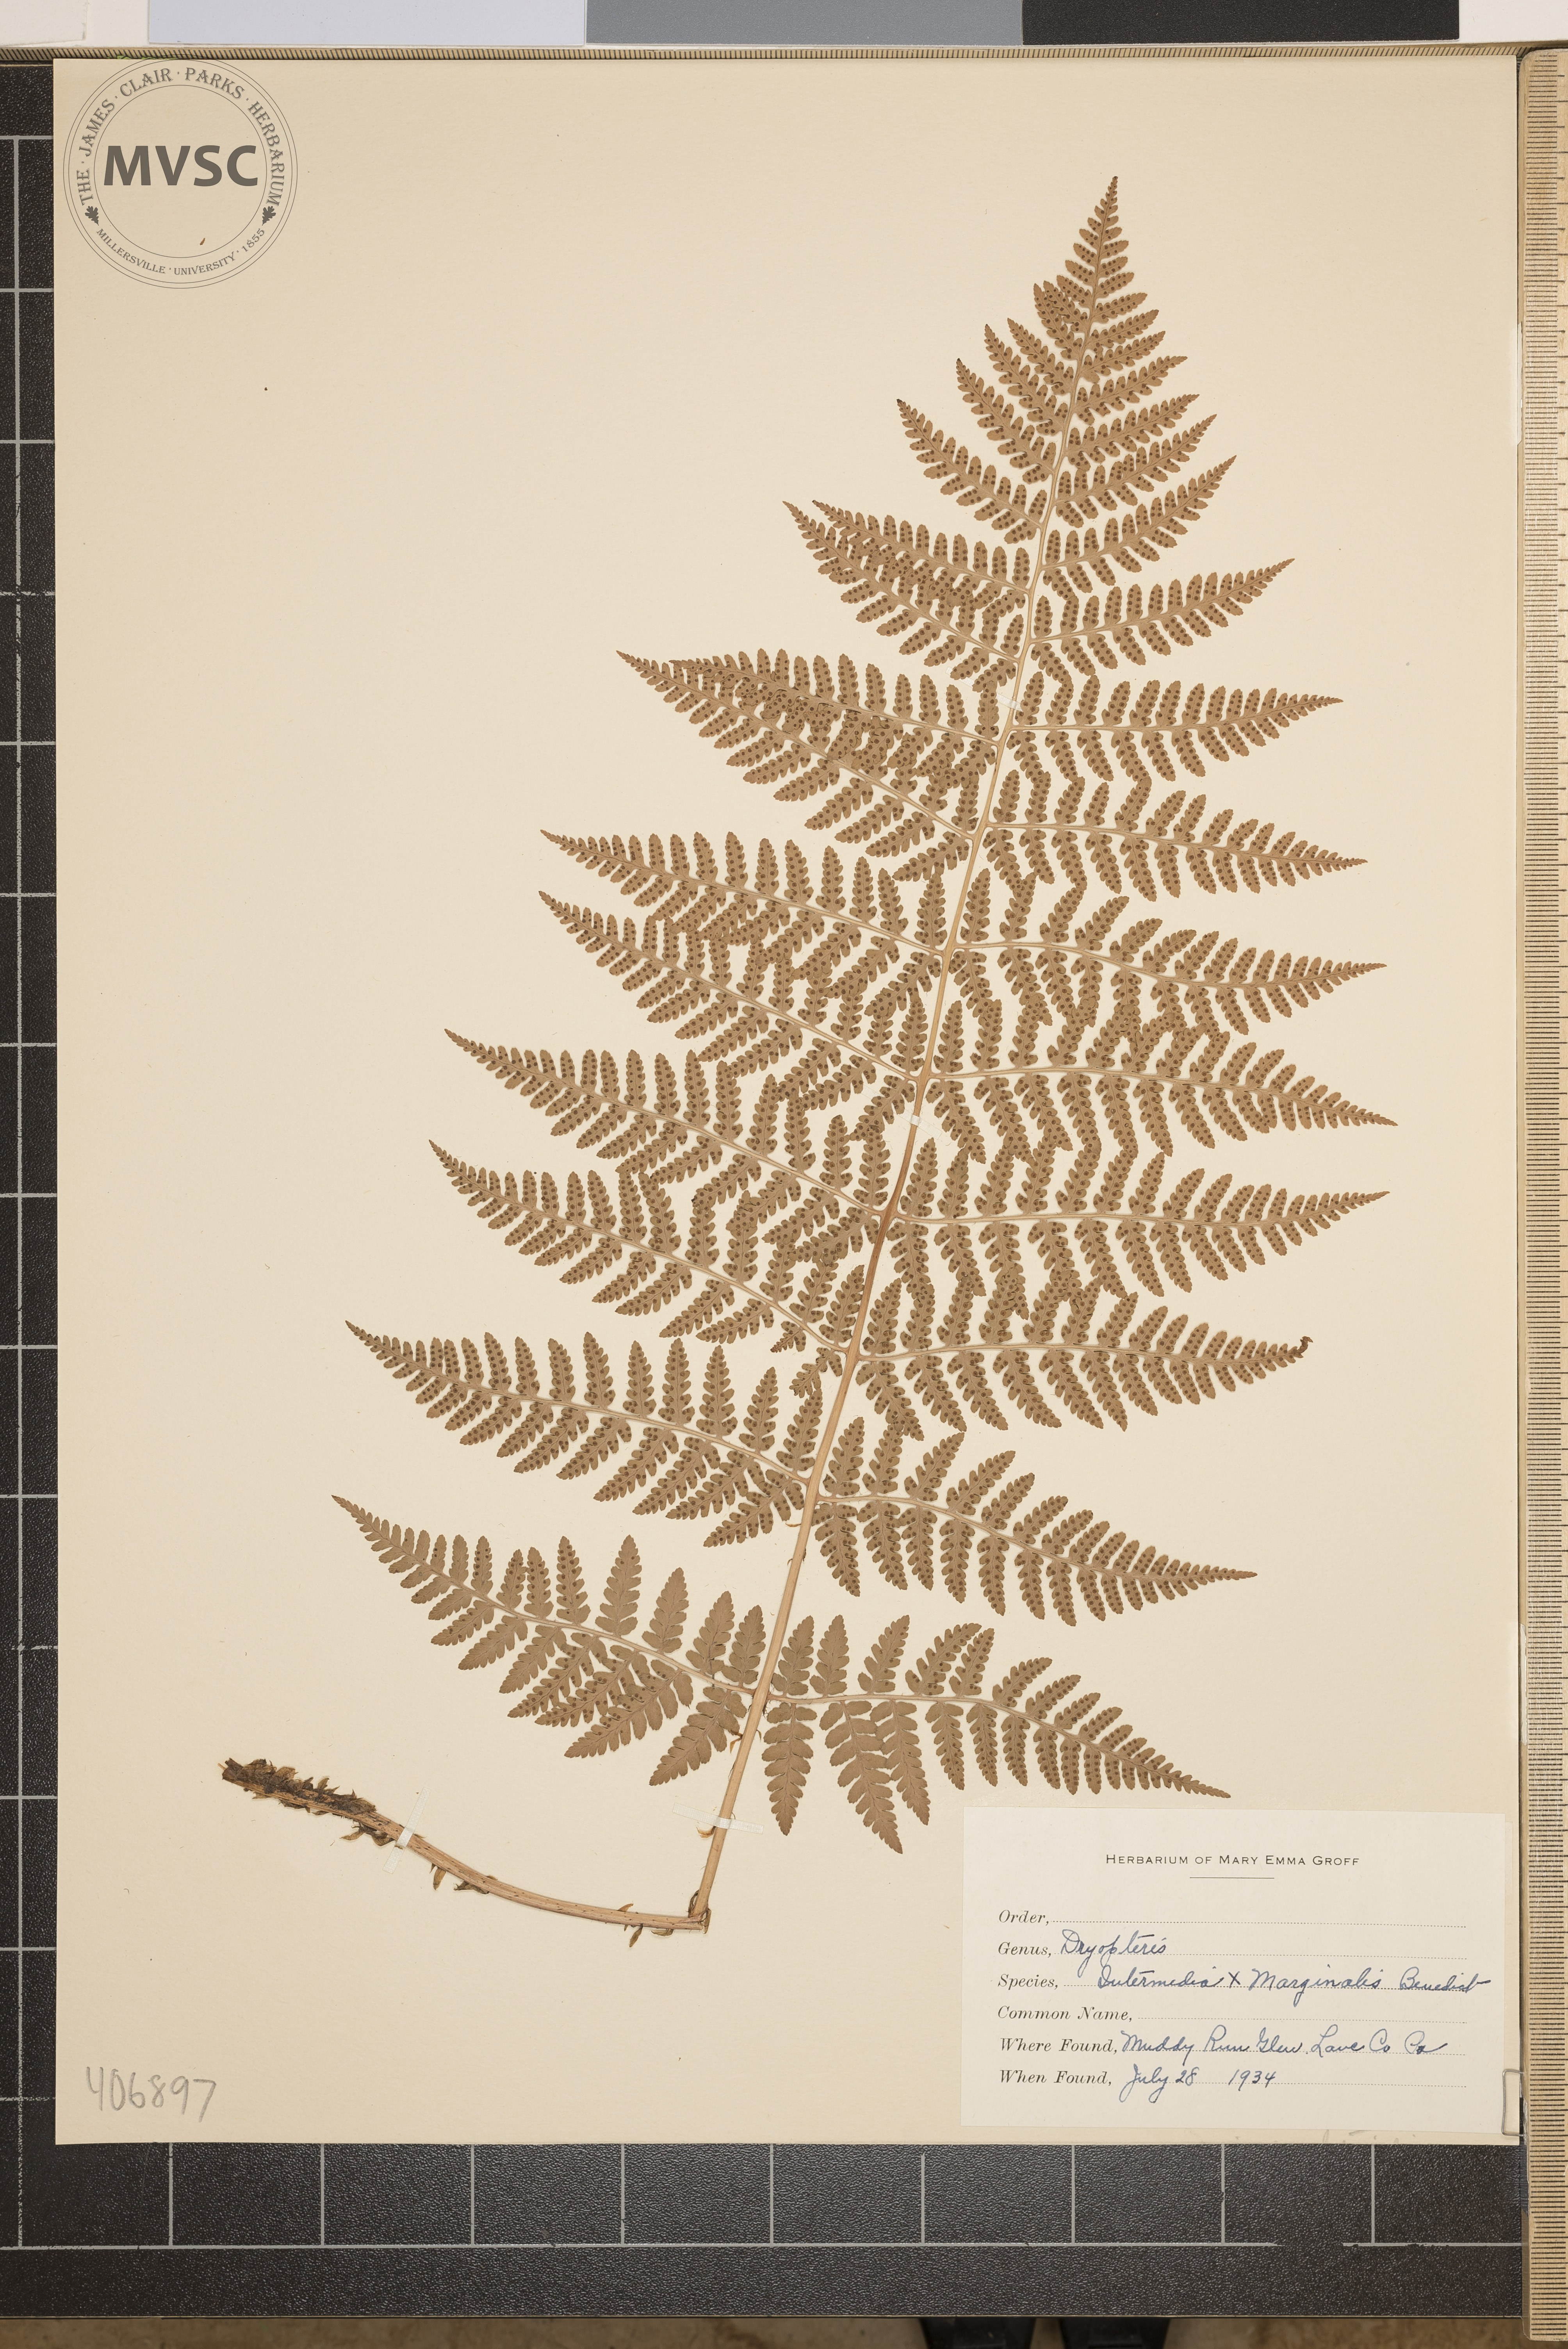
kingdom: Plantae
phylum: Tracheophyta
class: Polypodiopsida
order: Polypodiales
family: Dryopteridaceae
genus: Dryopteris
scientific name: Dryopteris
